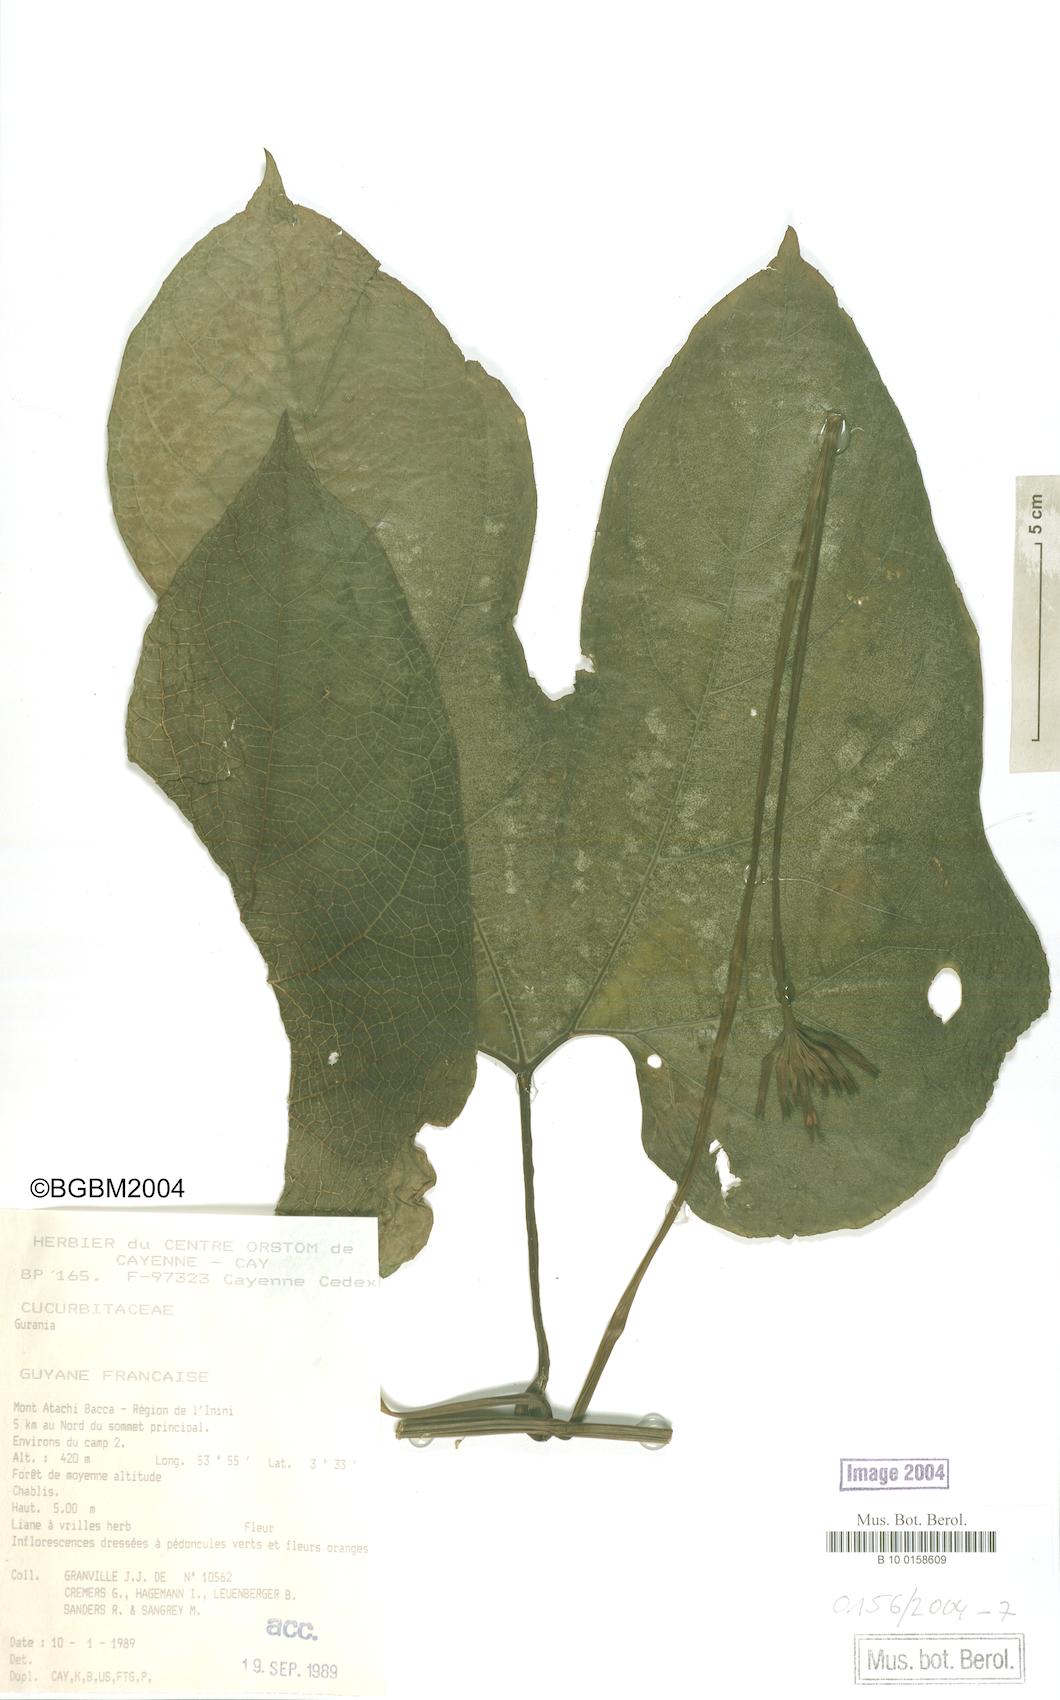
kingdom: Plantae
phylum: Tracheophyta
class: Magnoliopsida
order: Cucurbitales
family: Cucurbitaceae
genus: Gurania
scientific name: Gurania lobata
